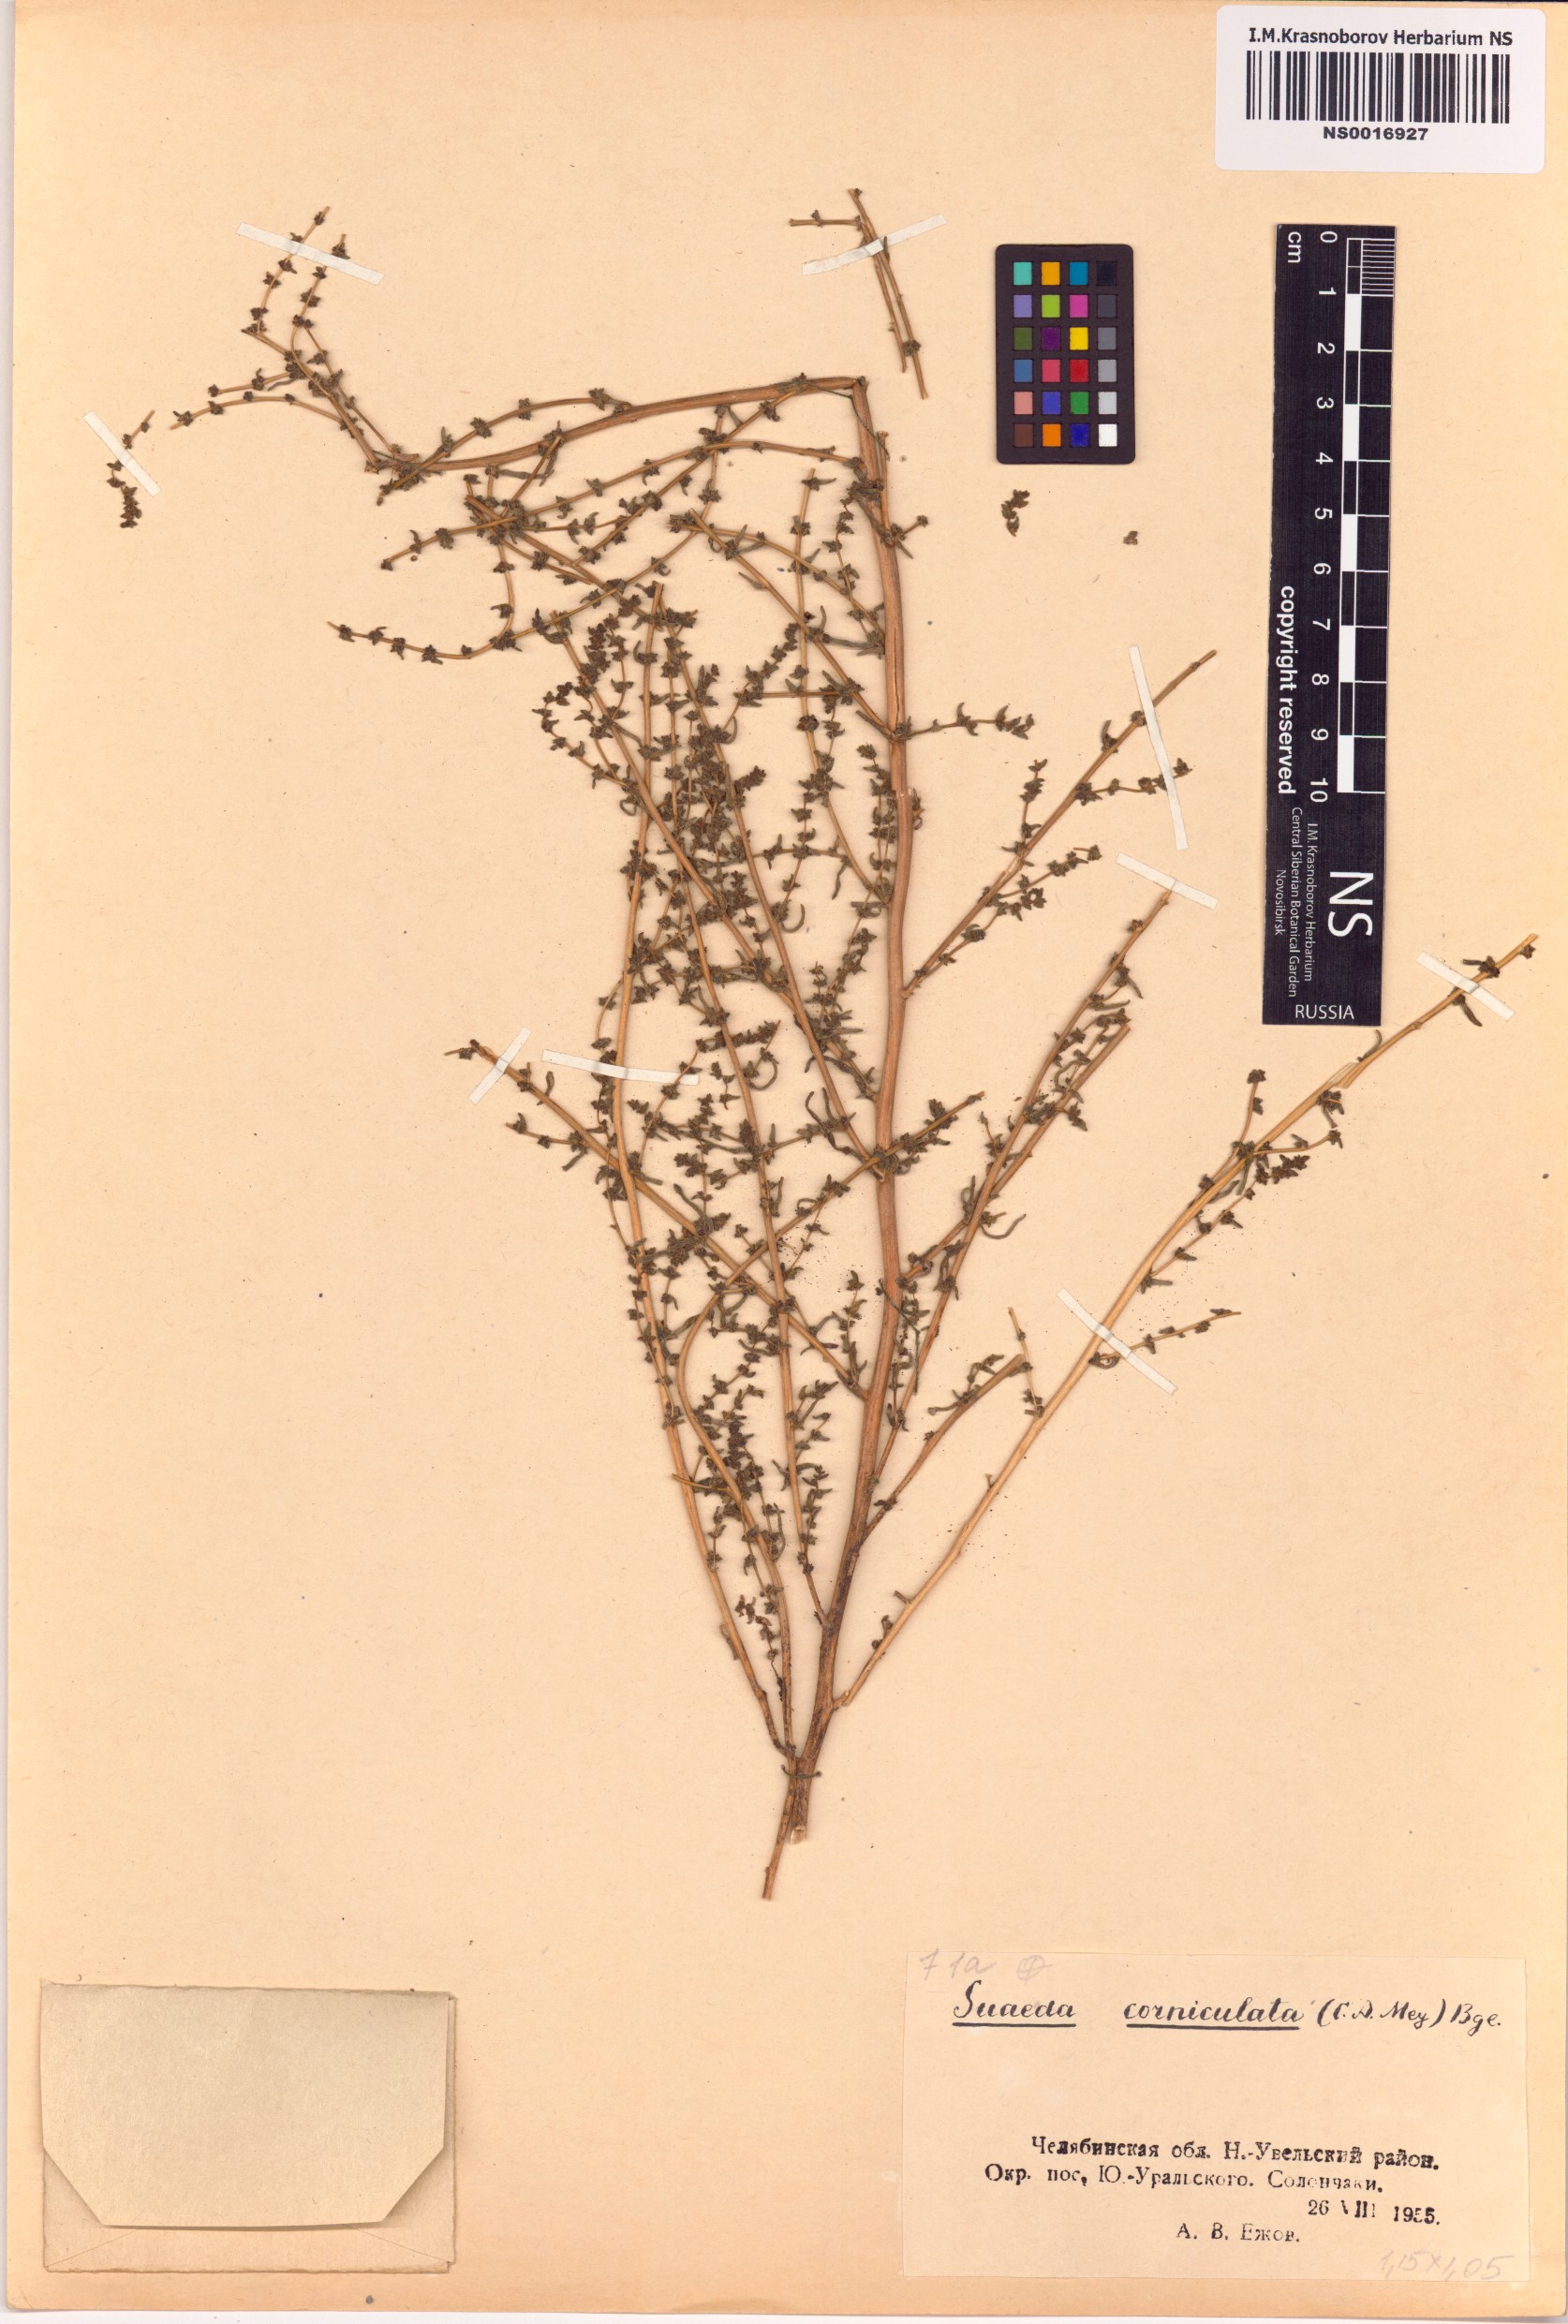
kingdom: Plantae
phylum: Tracheophyta
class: Magnoliopsida
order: Caryophyllales
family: Amaranthaceae
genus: Suaeda
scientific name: Suaeda corniculata
